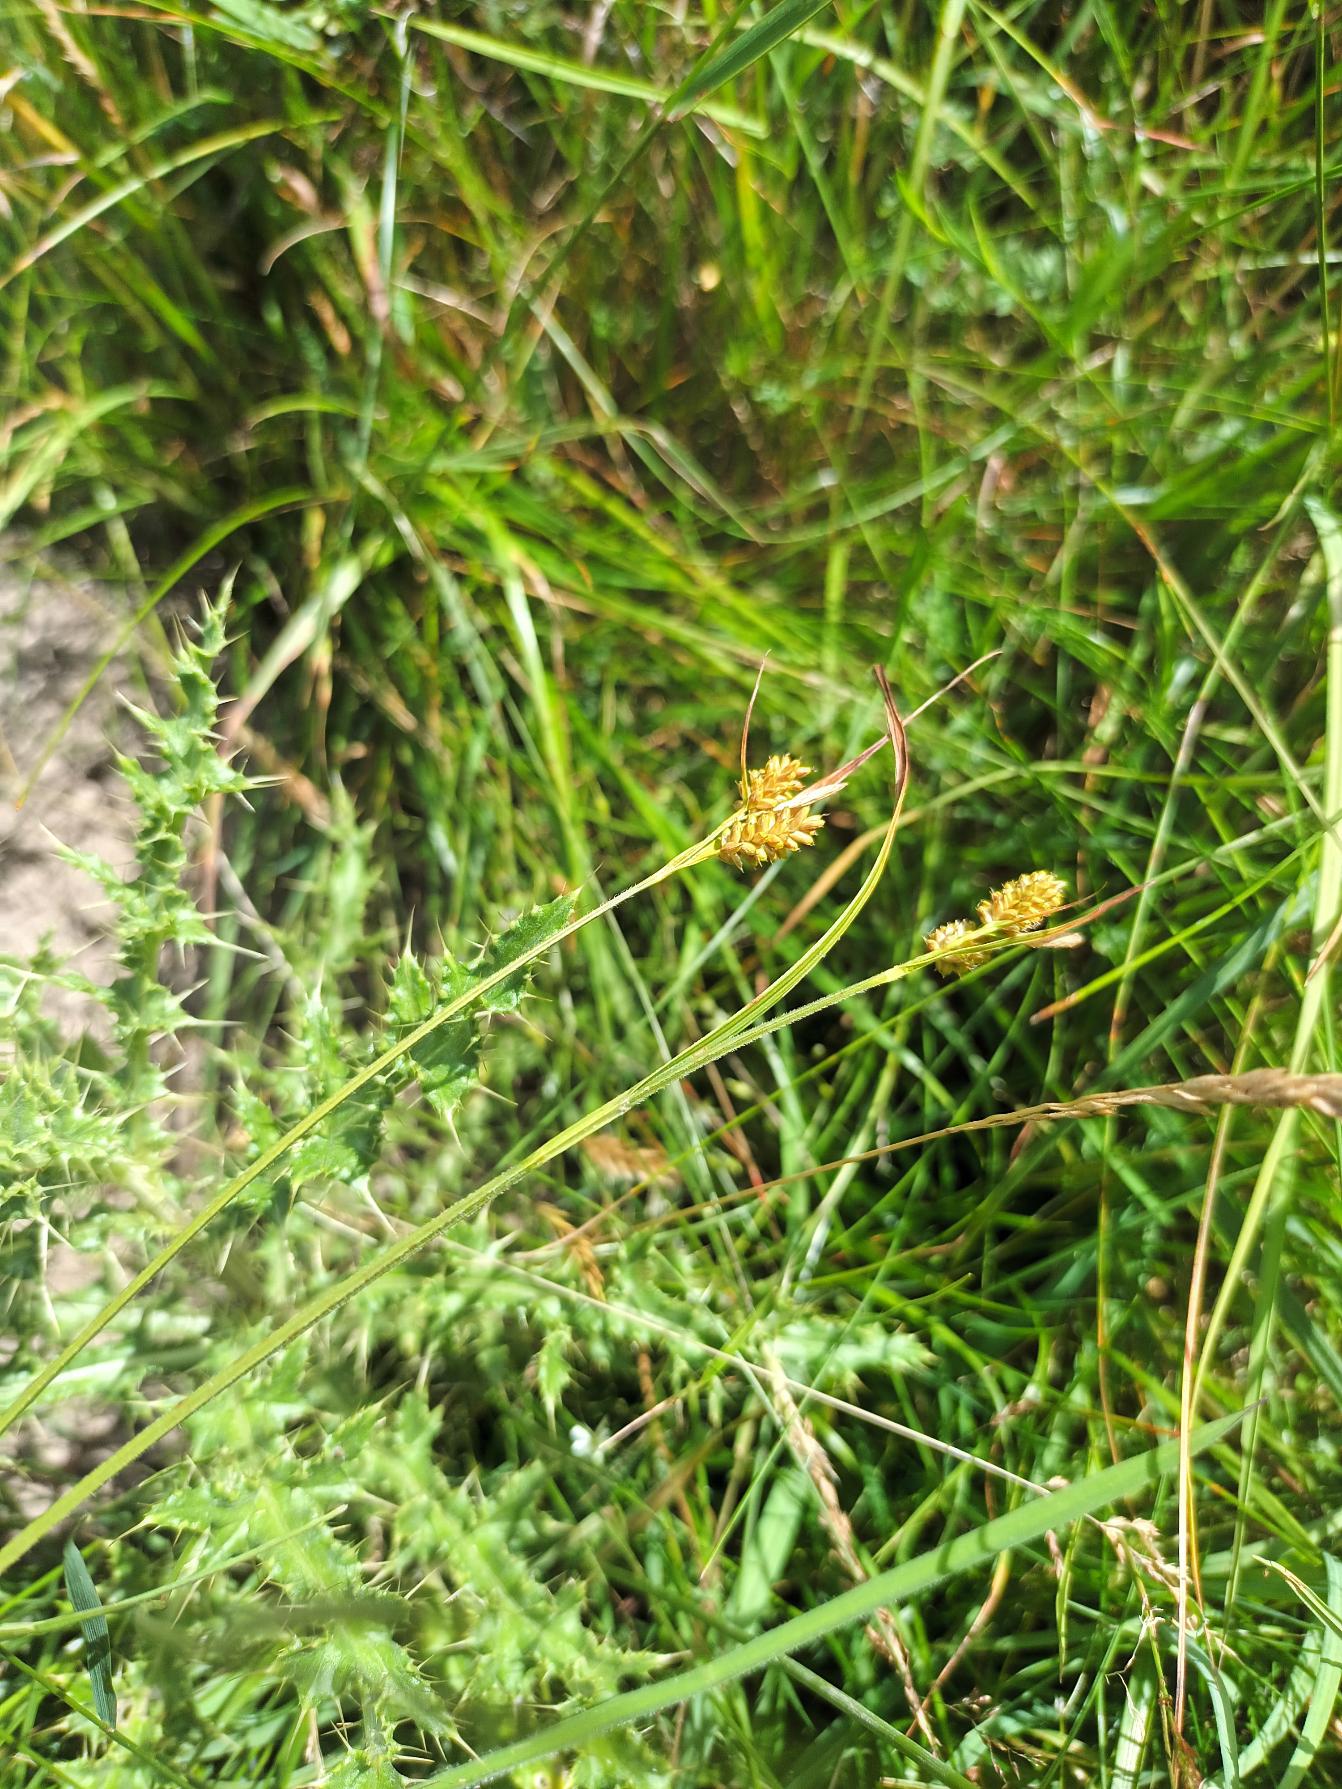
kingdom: Plantae
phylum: Tracheophyta
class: Liliopsida
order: Poales
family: Cyperaceae
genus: Carex
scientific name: Carex pallescens
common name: Bleg star
